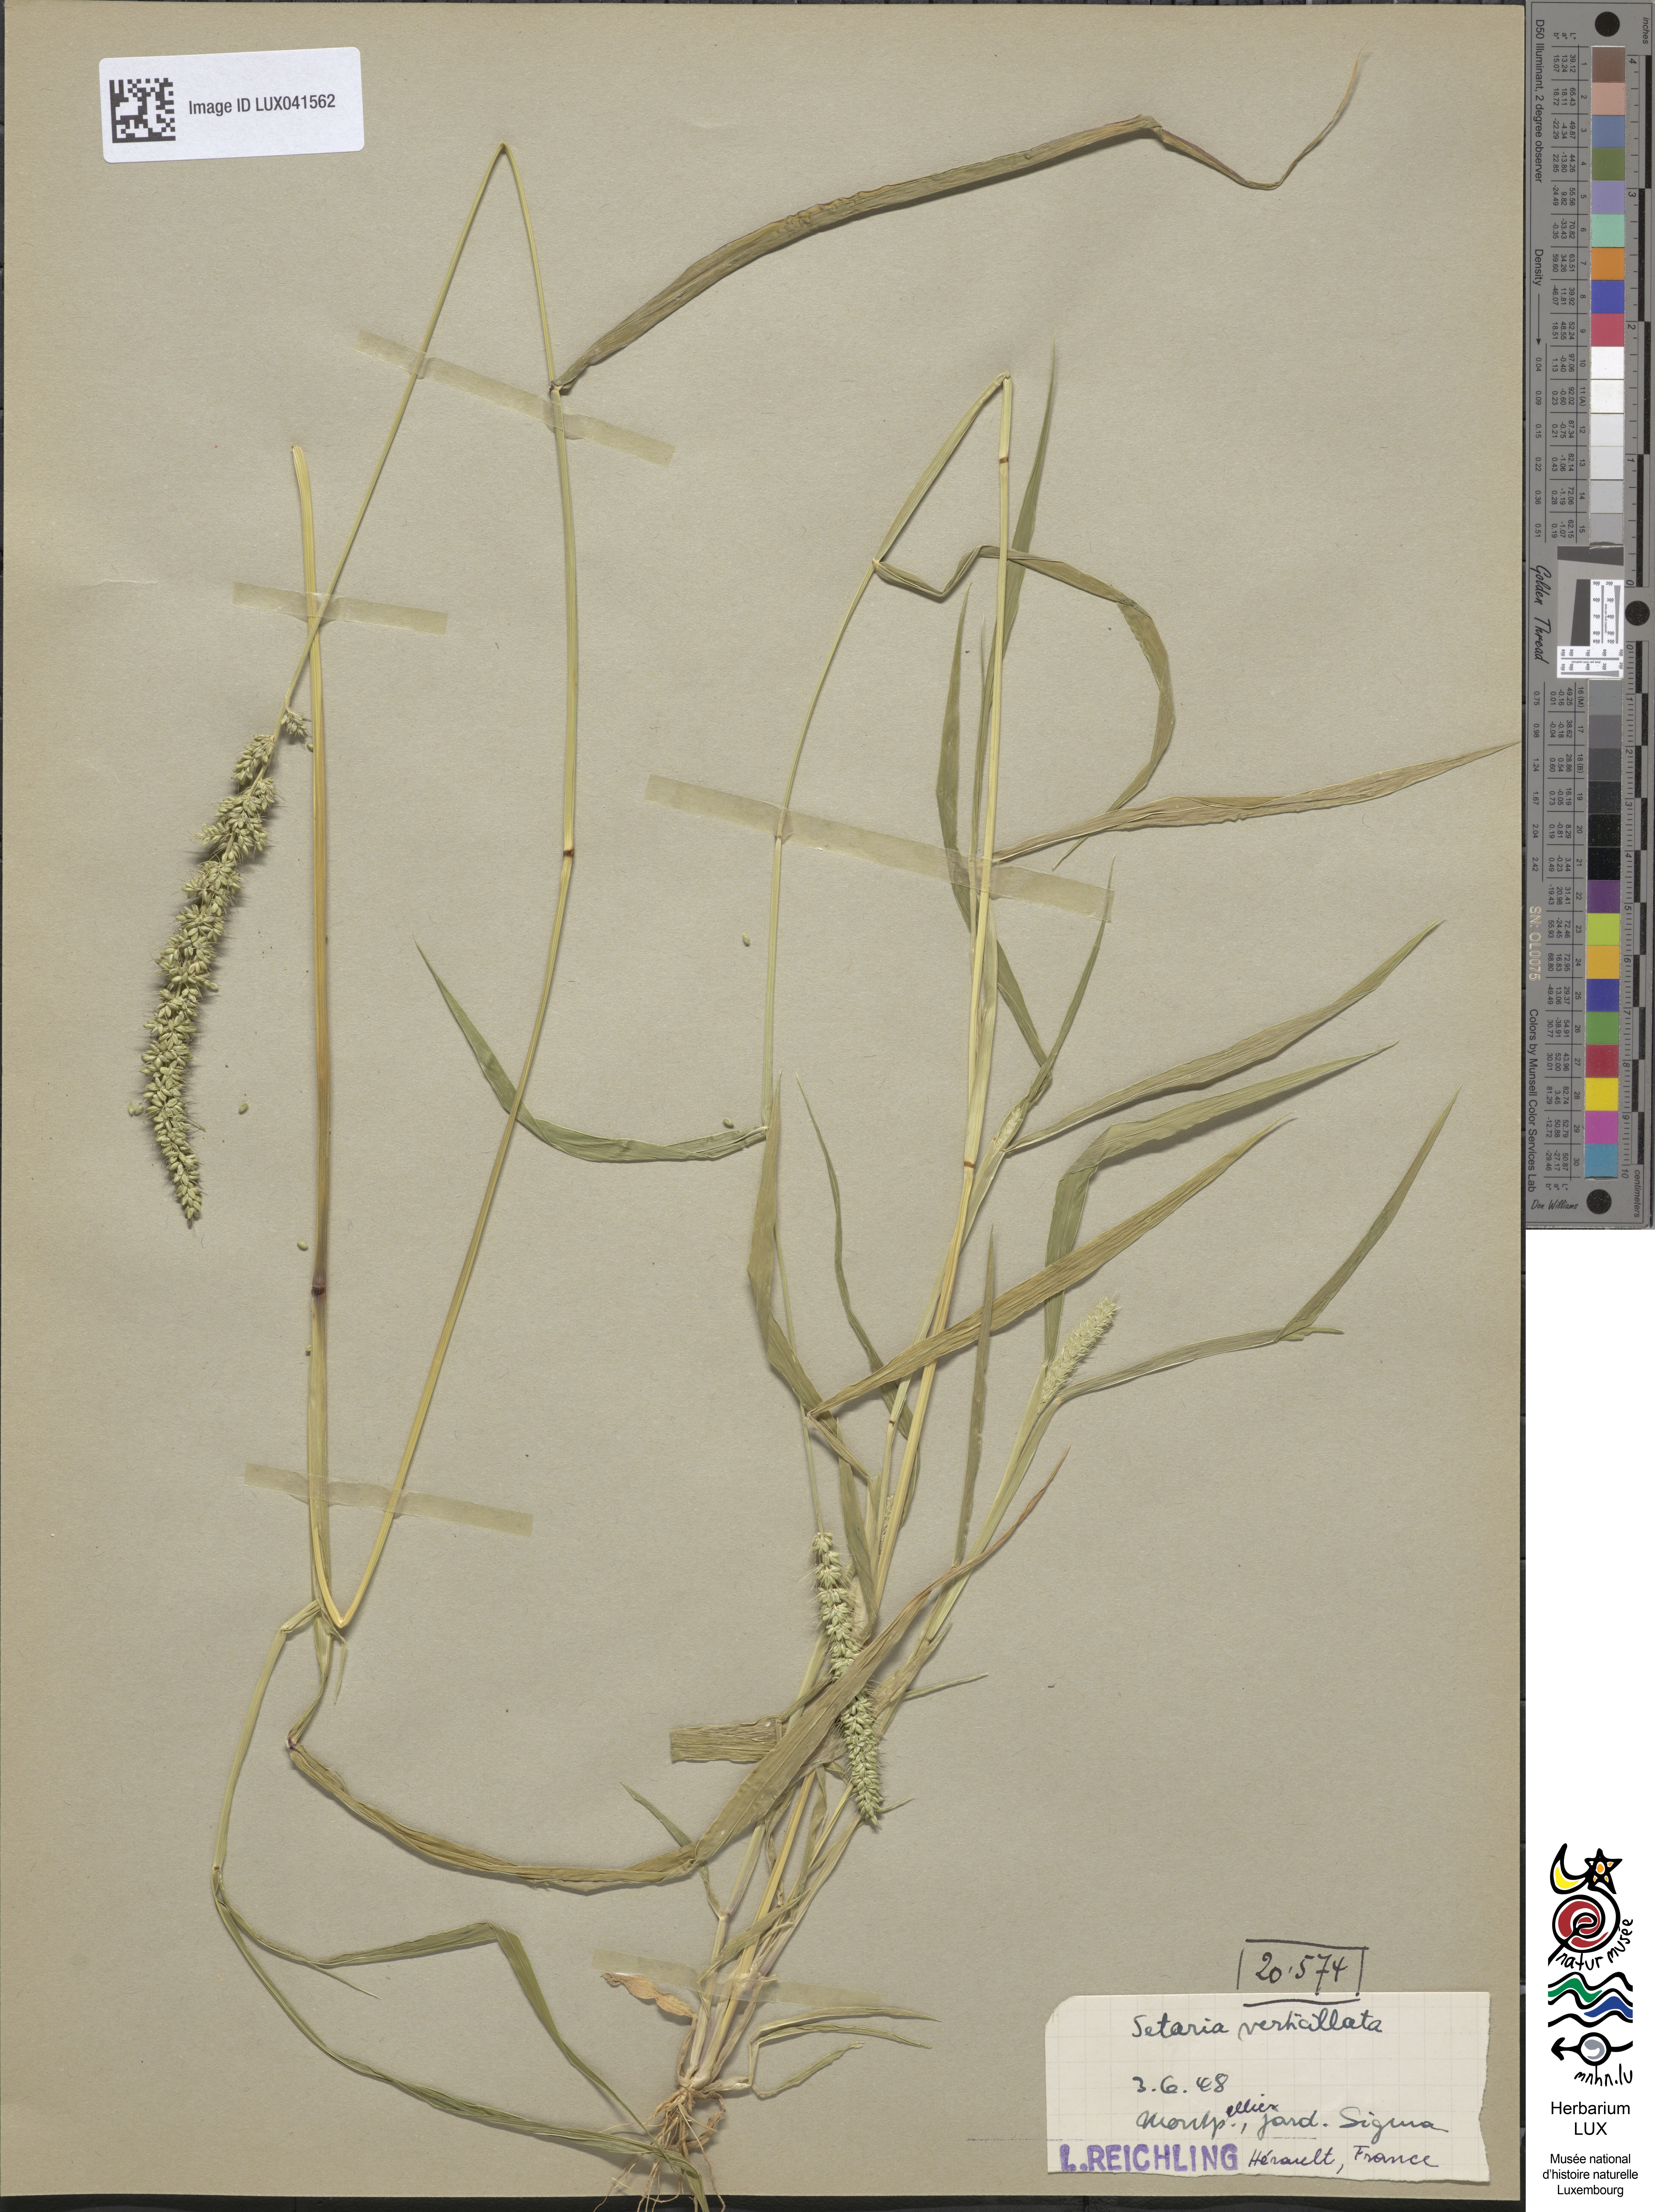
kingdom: Plantae
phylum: Tracheophyta
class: Liliopsida
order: Poales
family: Poaceae
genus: Setaria
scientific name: Setaria verticillata
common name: Hooked bristlegrass
